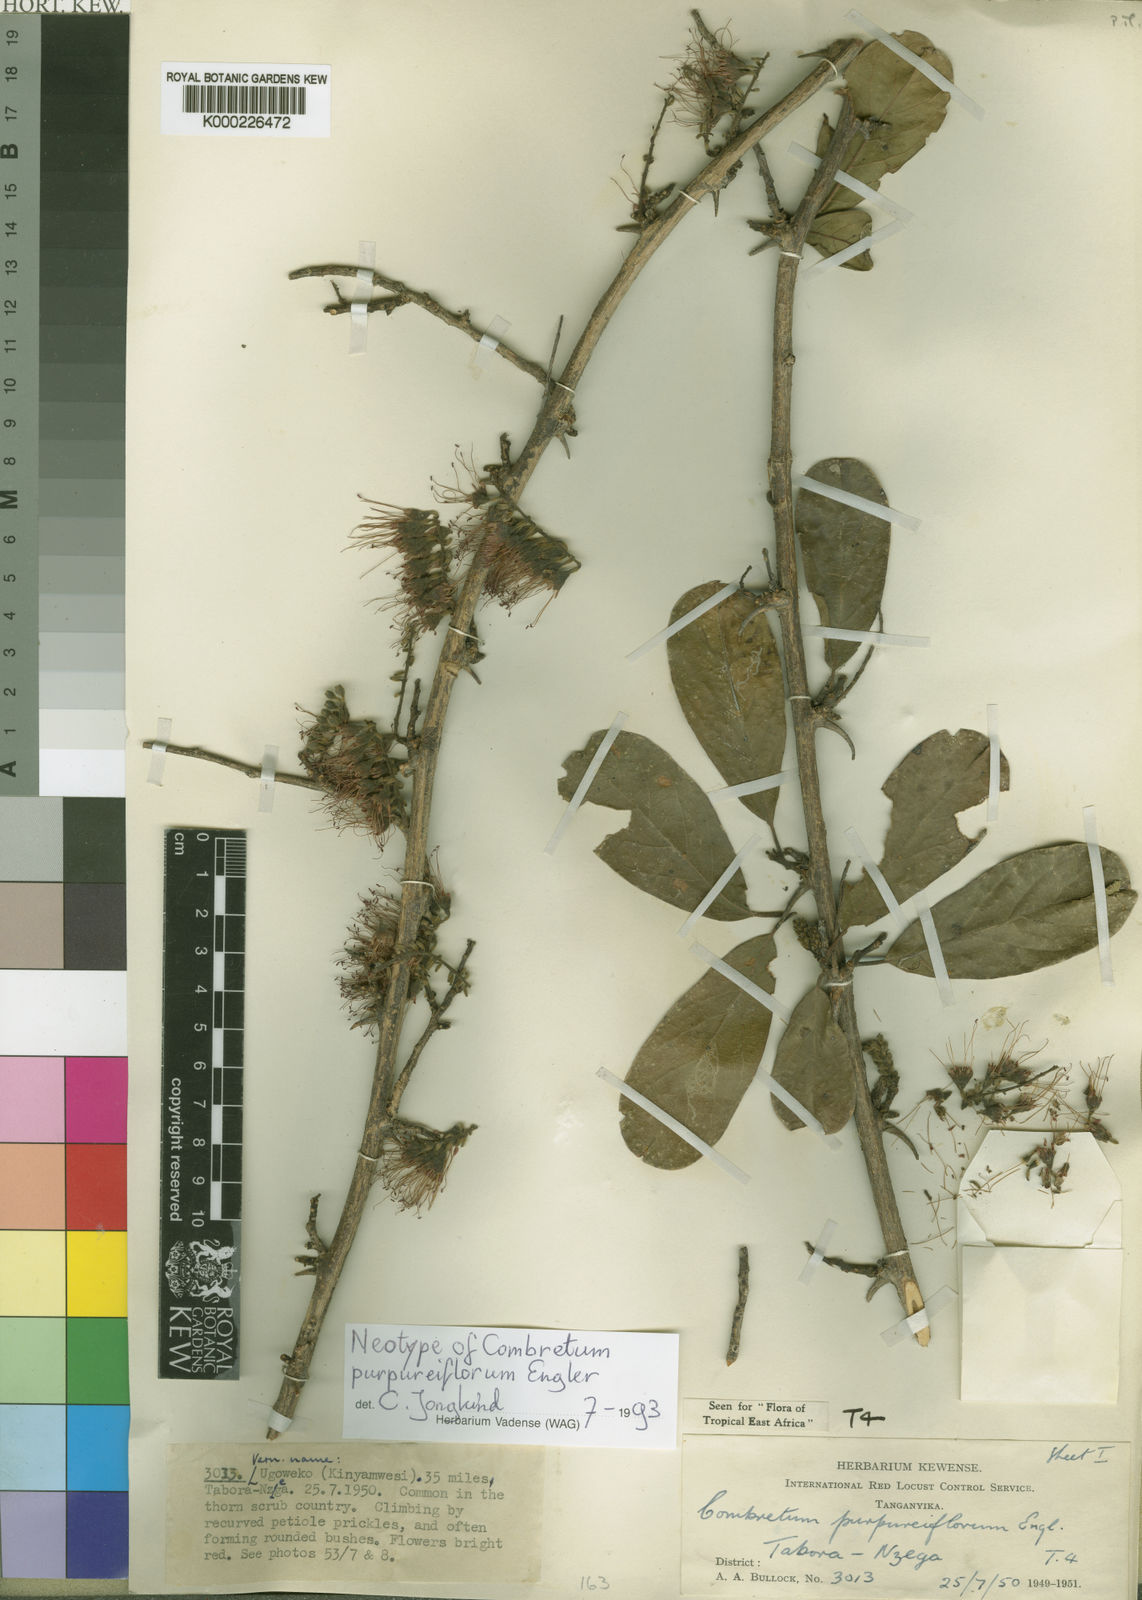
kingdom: Plantae
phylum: Tracheophyta
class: Magnoliopsida
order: Myrtales
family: Combretaceae
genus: Combretum
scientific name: Combretum purpureiflorum
